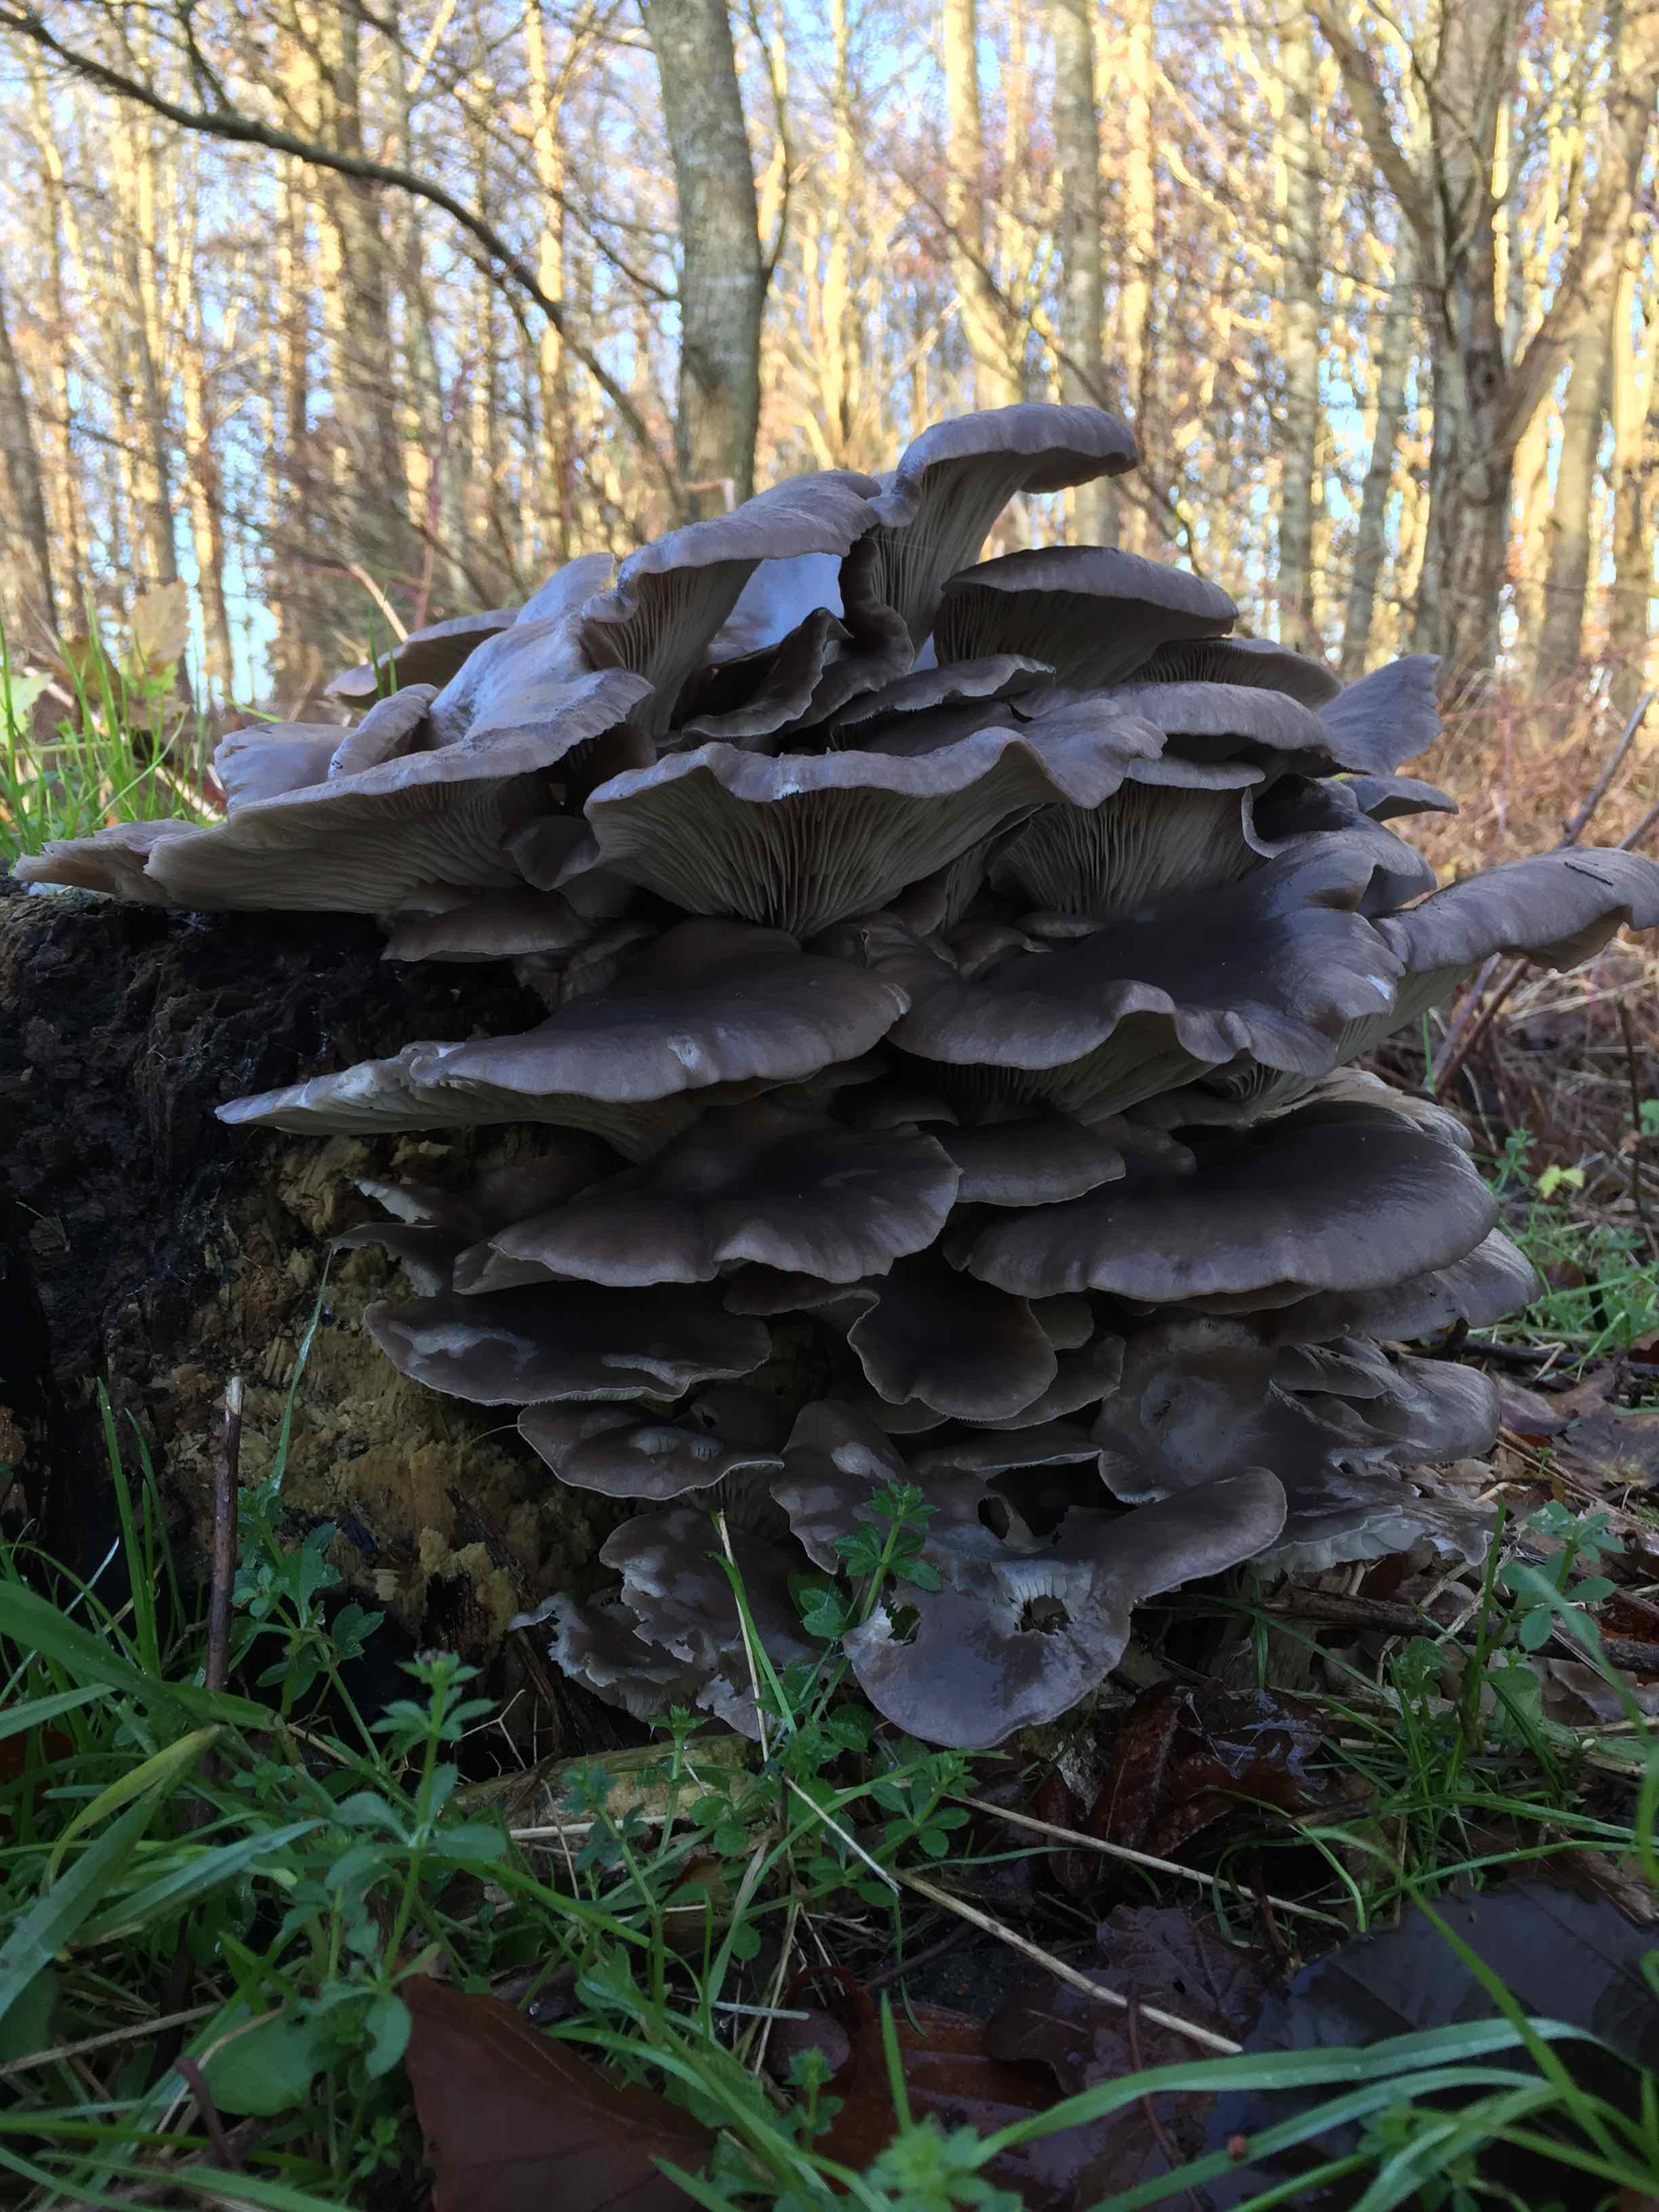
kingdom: Fungi
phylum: Basidiomycota
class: Agaricomycetes
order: Agaricales
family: Pleurotaceae
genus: Pleurotus
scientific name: Pleurotus ostreatus
